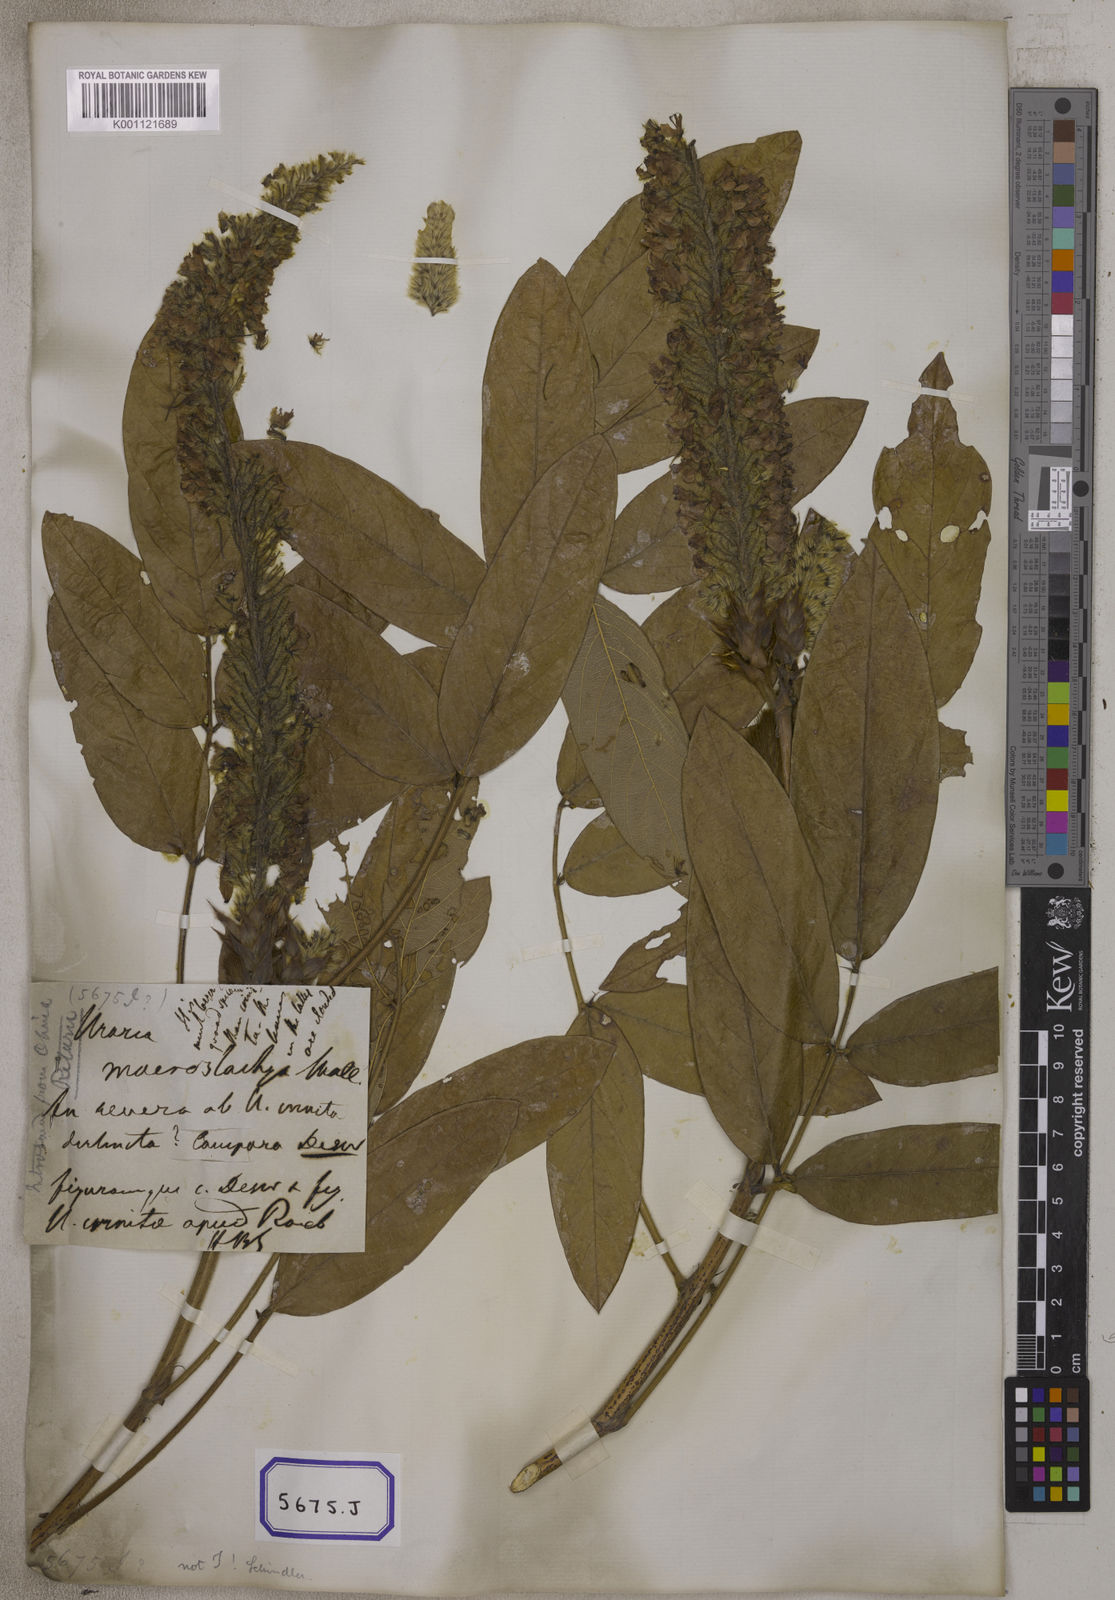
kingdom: Plantae
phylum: Tracheophyta
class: Magnoliopsida
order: Fabales
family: Fabaceae
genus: Uraria
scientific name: Uraria
